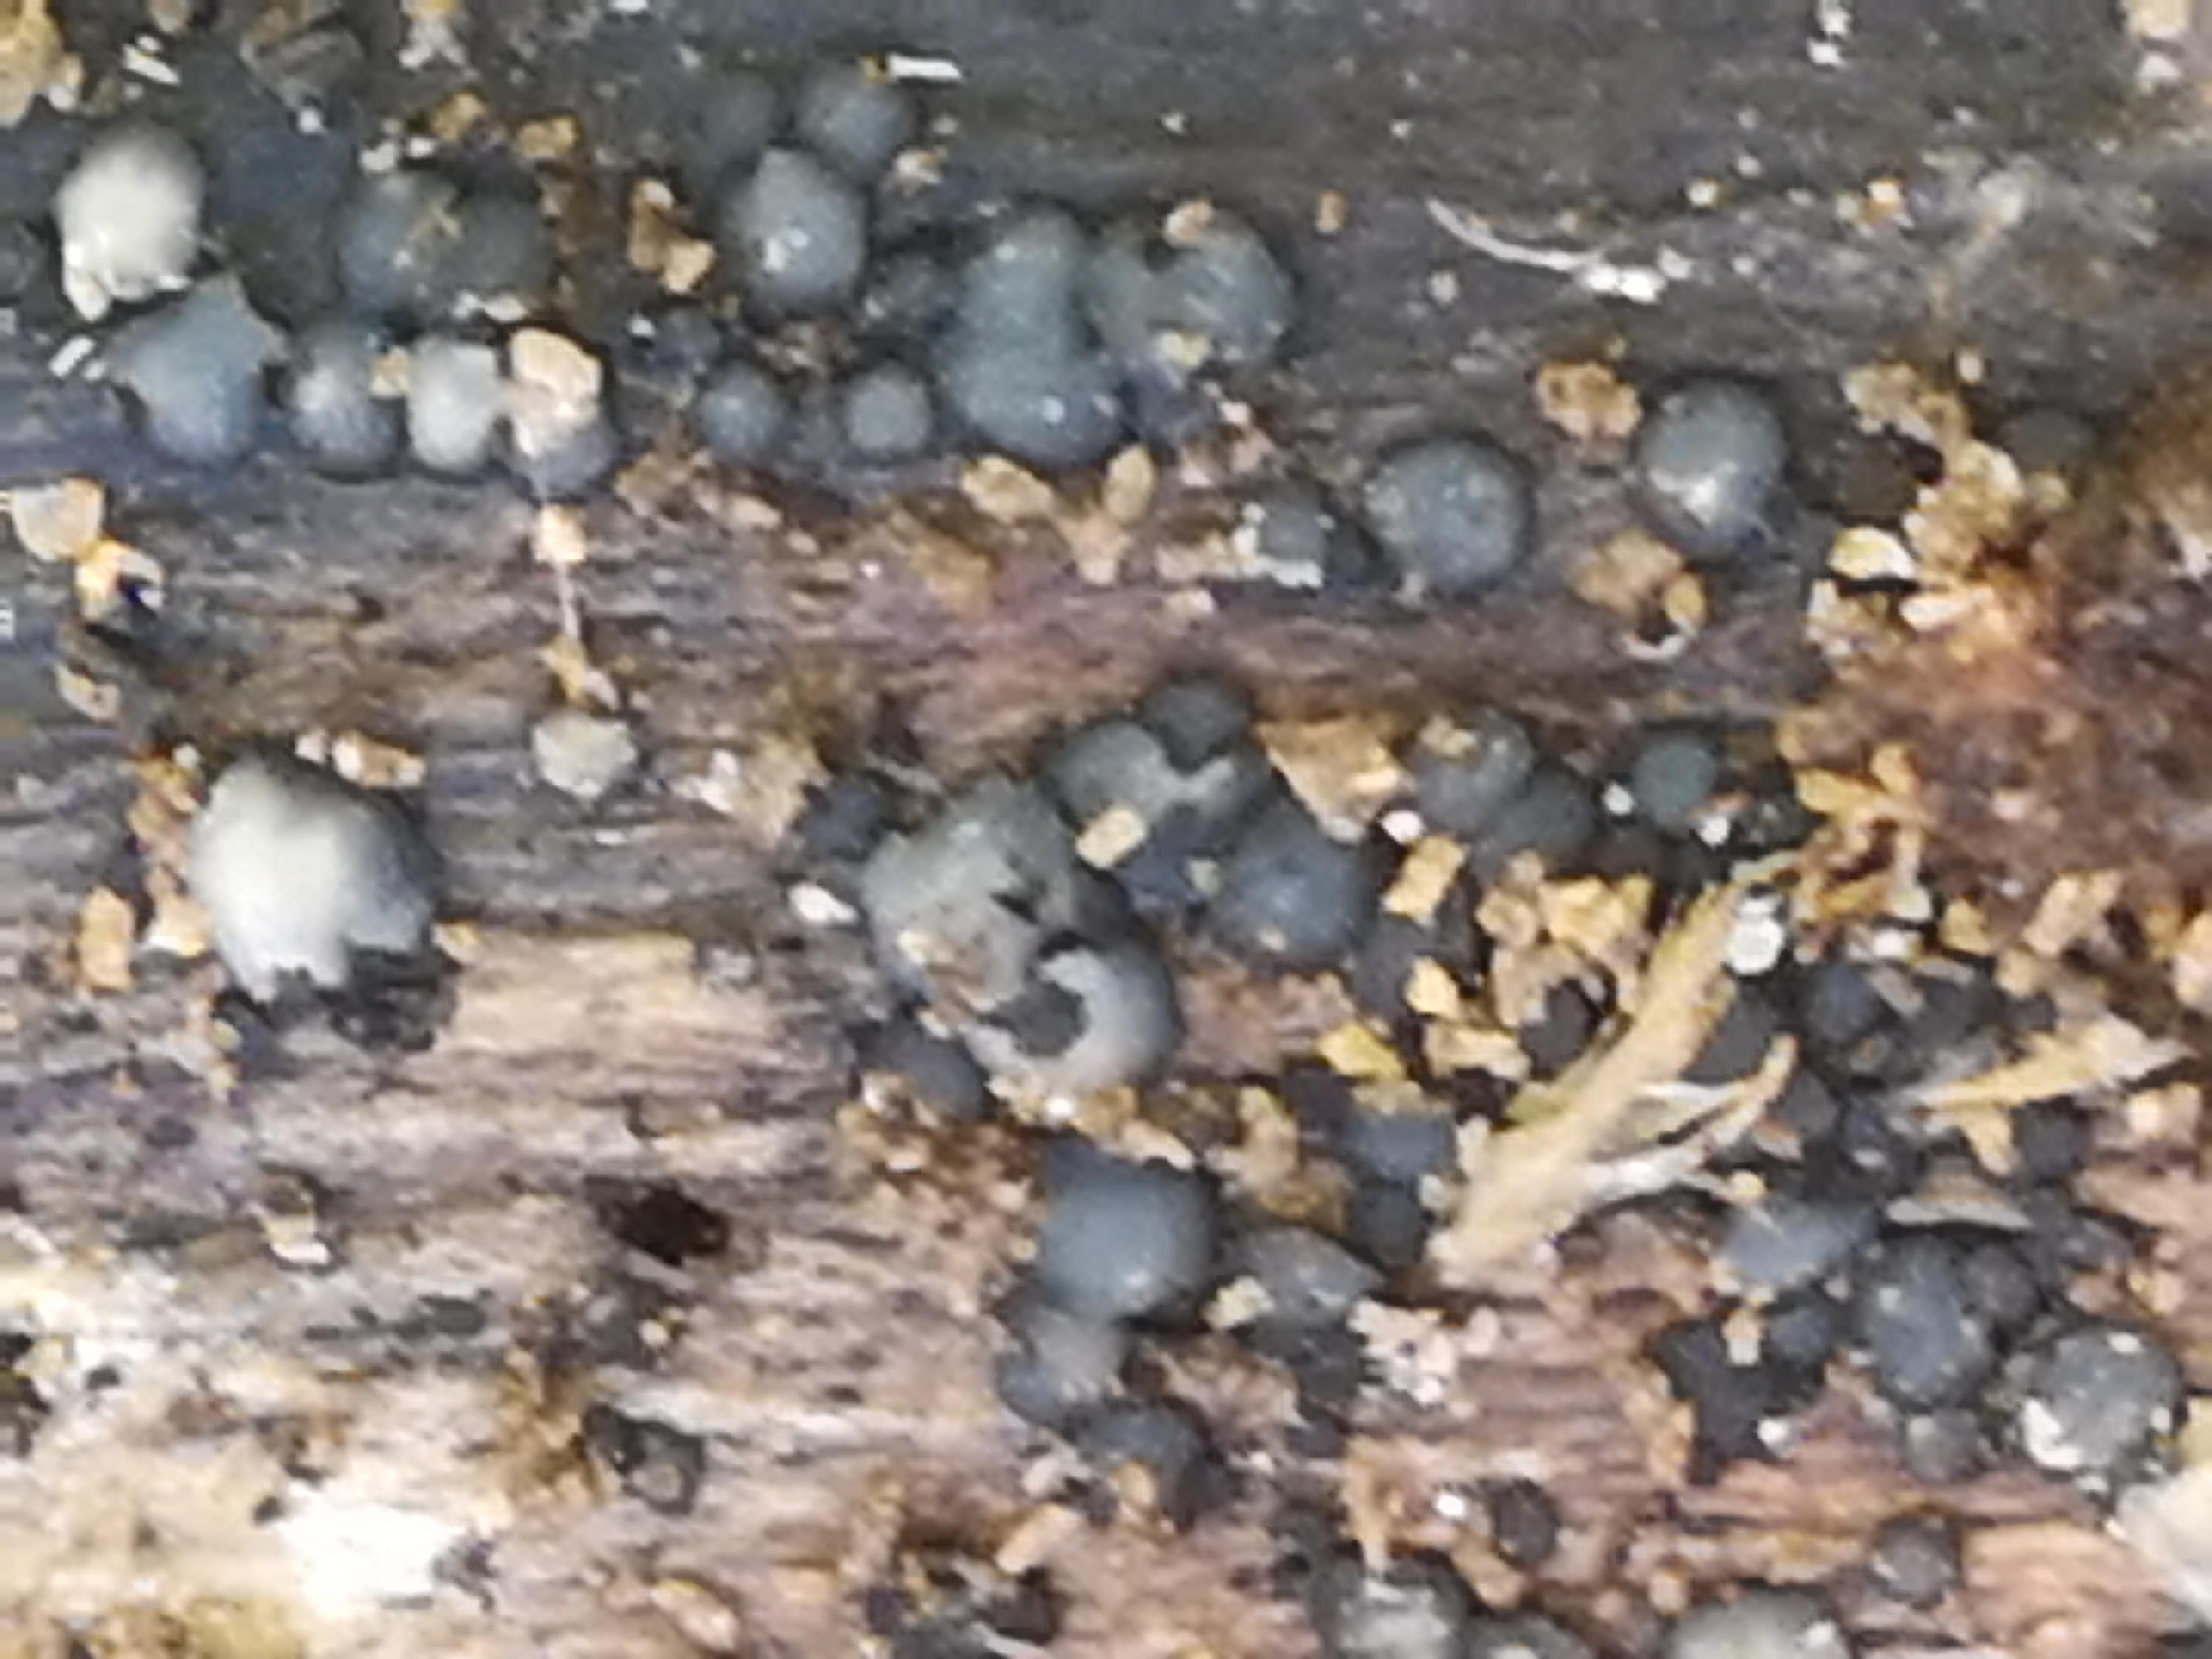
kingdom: Fungi
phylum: Ascomycota
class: Leotiomycetes
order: Helotiales
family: Mollisiaceae
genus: Mollisia
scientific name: Mollisia
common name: gråskive
